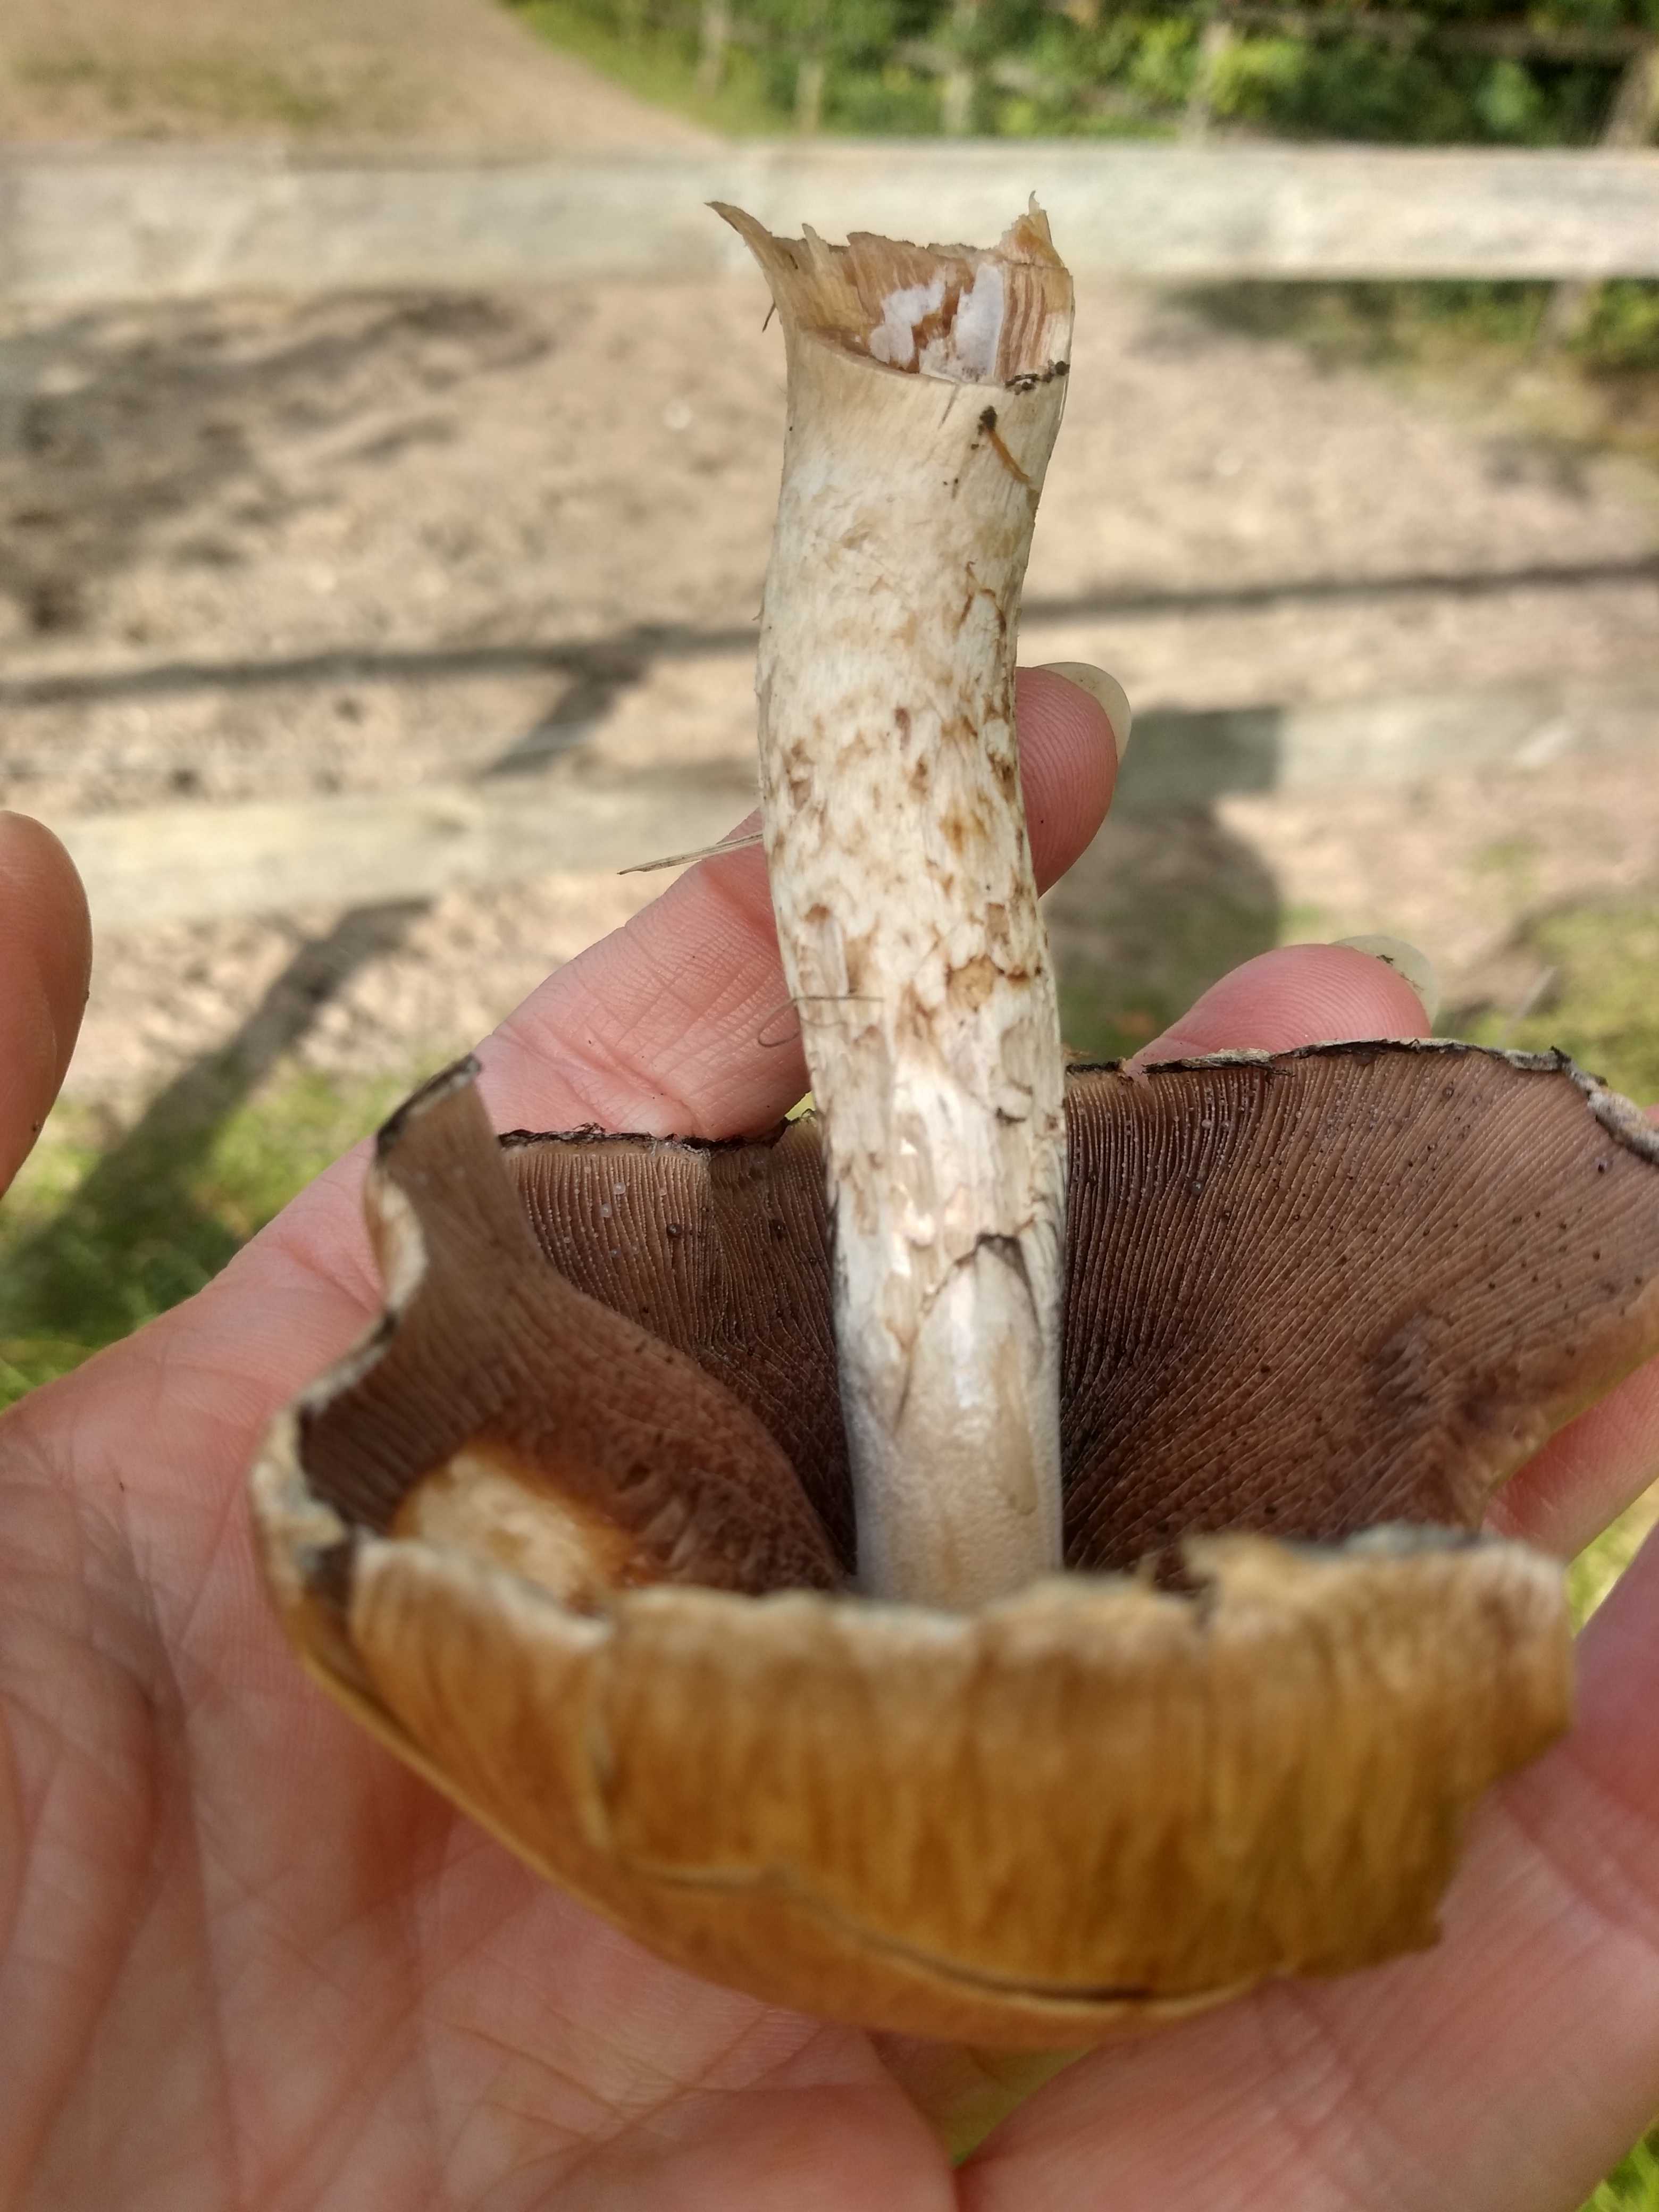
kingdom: Fungi
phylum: Basidiomycota
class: Agaricomycetes
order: Agaricales
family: Psathyrellaceae
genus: Lacrymaria
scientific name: Lacrymaria lacrymabunda
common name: grædende mørkhat
